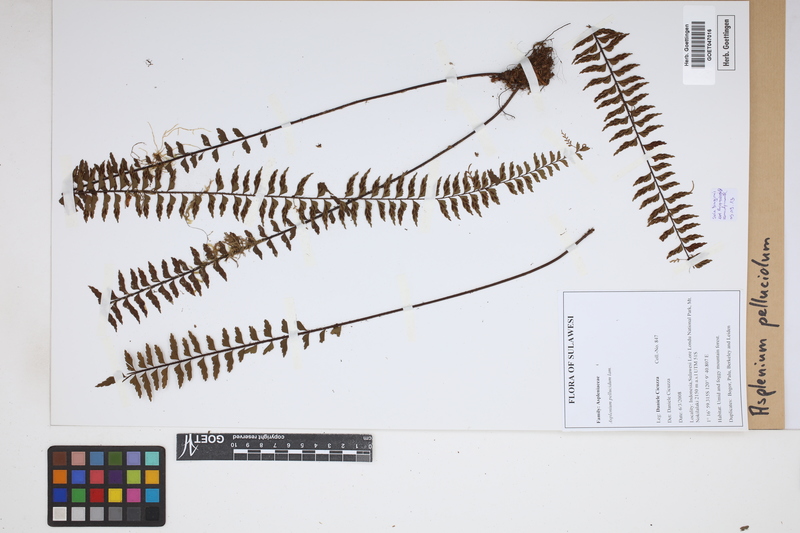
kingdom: Plantae
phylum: Tracheophyta
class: Polypodiopsida
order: Polypodiales
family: Aspleniaceae
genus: Asplenium
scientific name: Asplenium pellucidum
